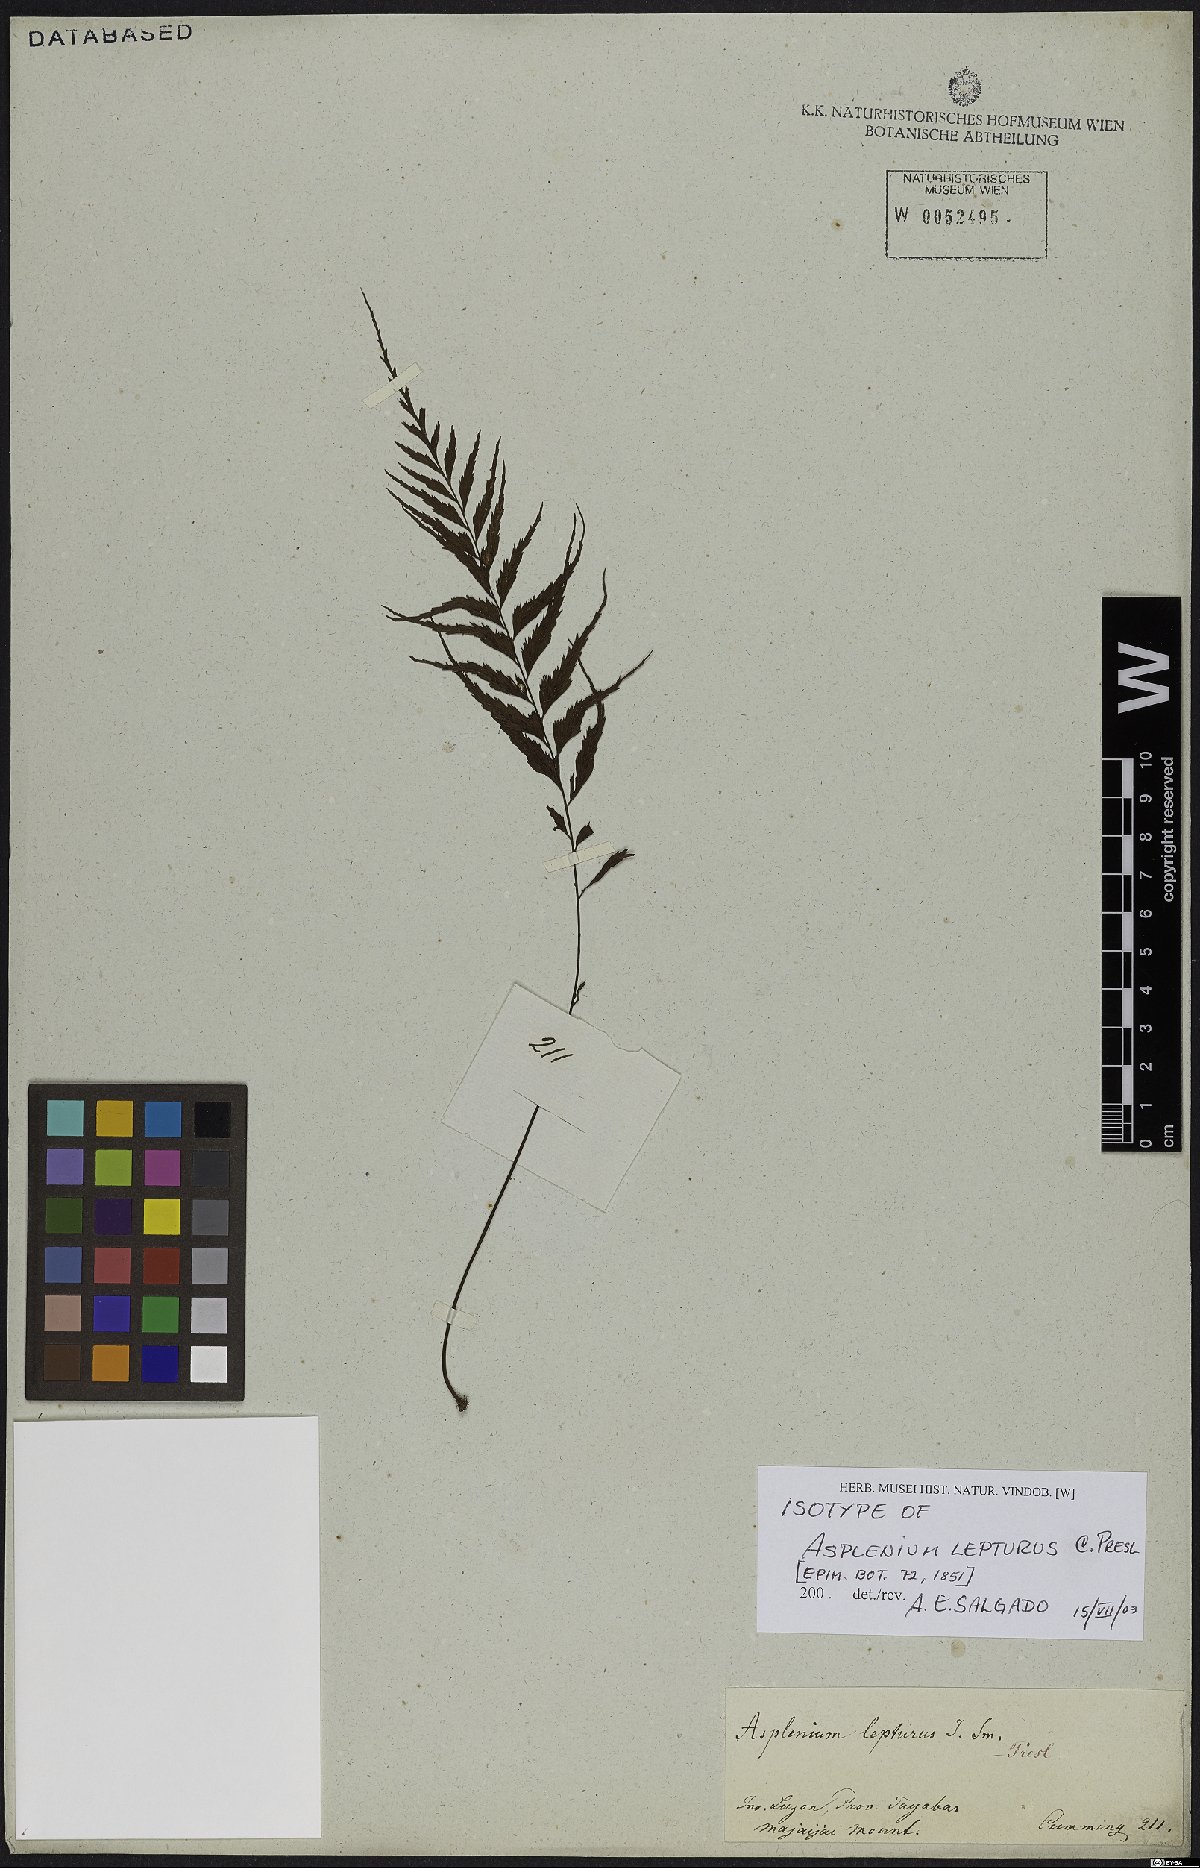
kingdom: Plantae
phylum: Tracheophyta
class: Polypodiopsida
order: Polypodiales
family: Aspleniaceae
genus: Asplenium
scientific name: Asplenium lepturus
